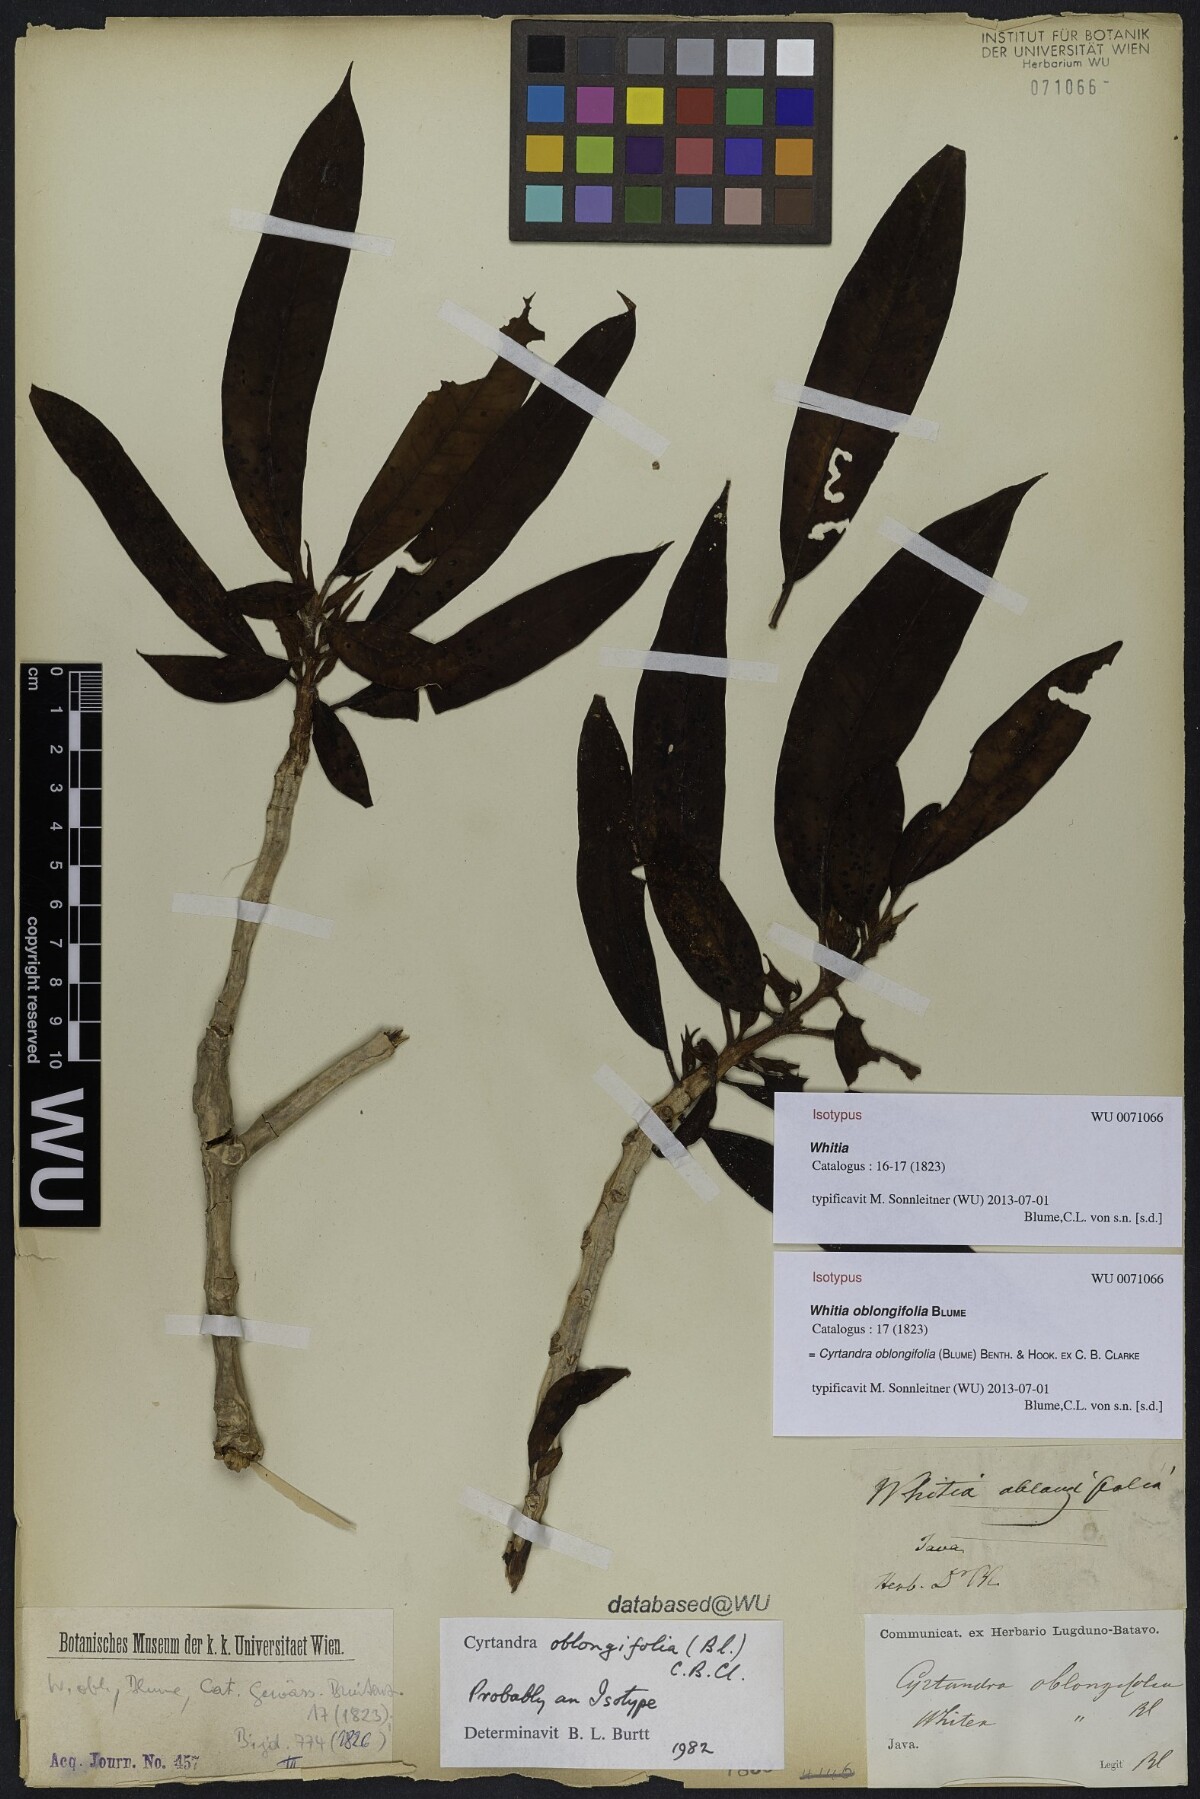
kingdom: Plantae
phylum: Tracheophyta
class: Magnoliopsida
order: Lamiales
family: Gesneriaceae
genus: Cyrtandra
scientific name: Cyrtandra oblongifolia
